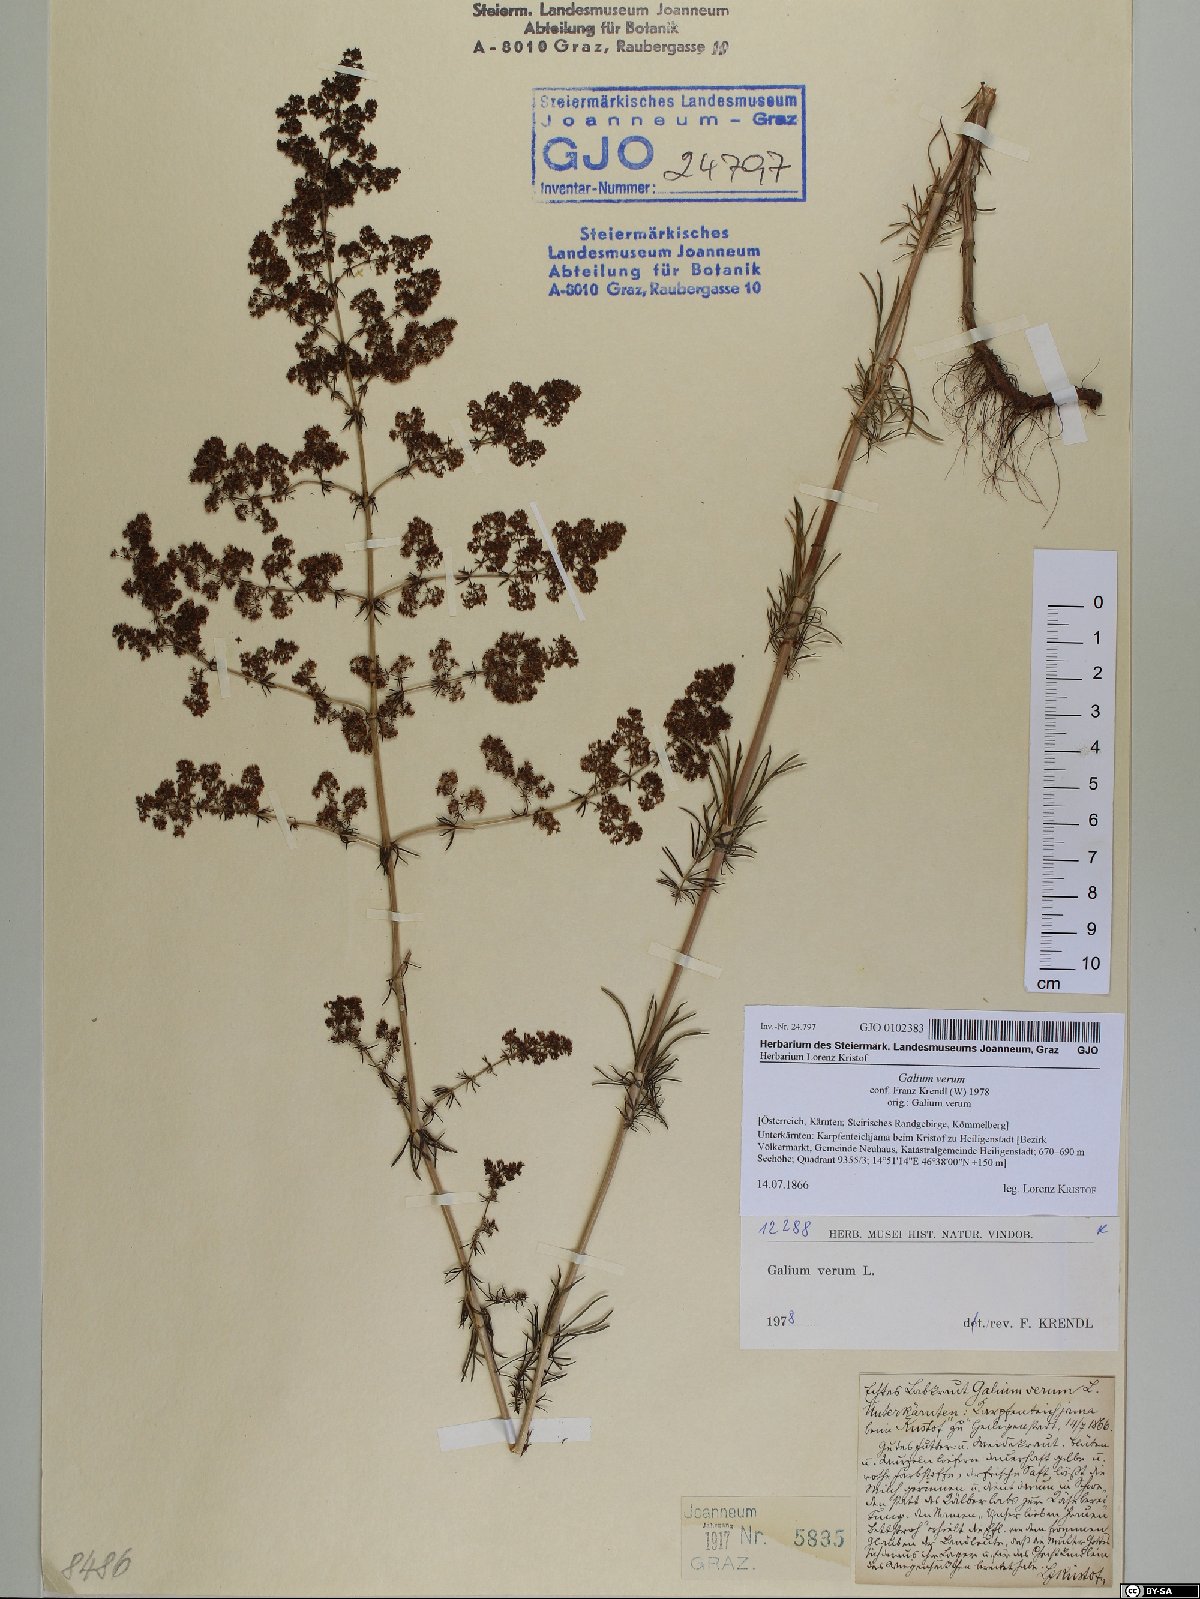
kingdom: Plantae
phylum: Tracheophyta
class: Magnoliopsida
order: Gentianales
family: Rubiaceae
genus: Galium
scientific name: Galium verum
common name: Lady's bedstraw
